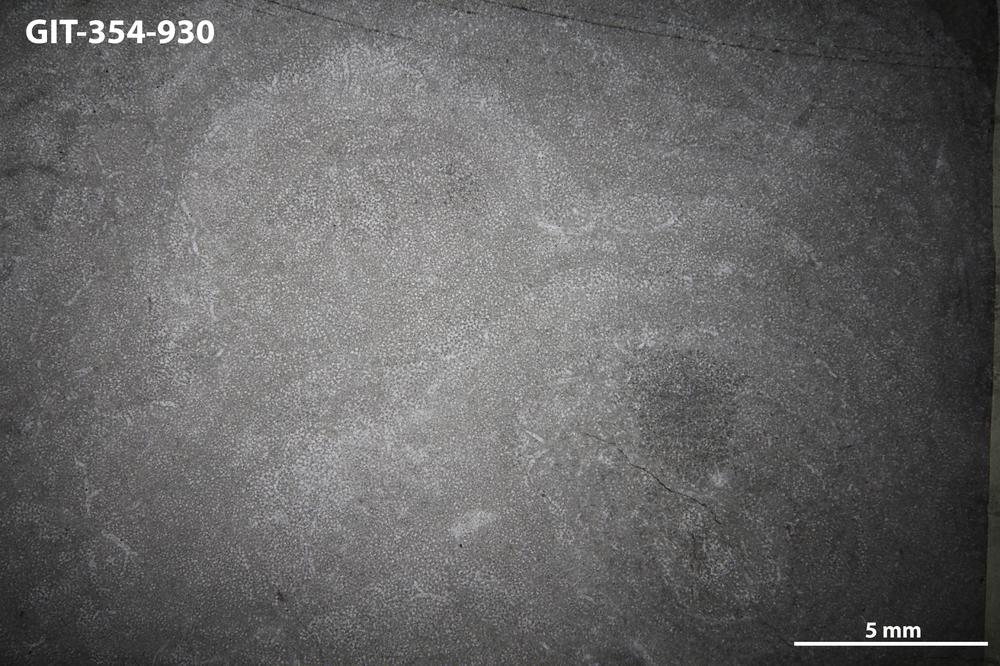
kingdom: Animalia
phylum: Porifera
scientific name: Porifera
